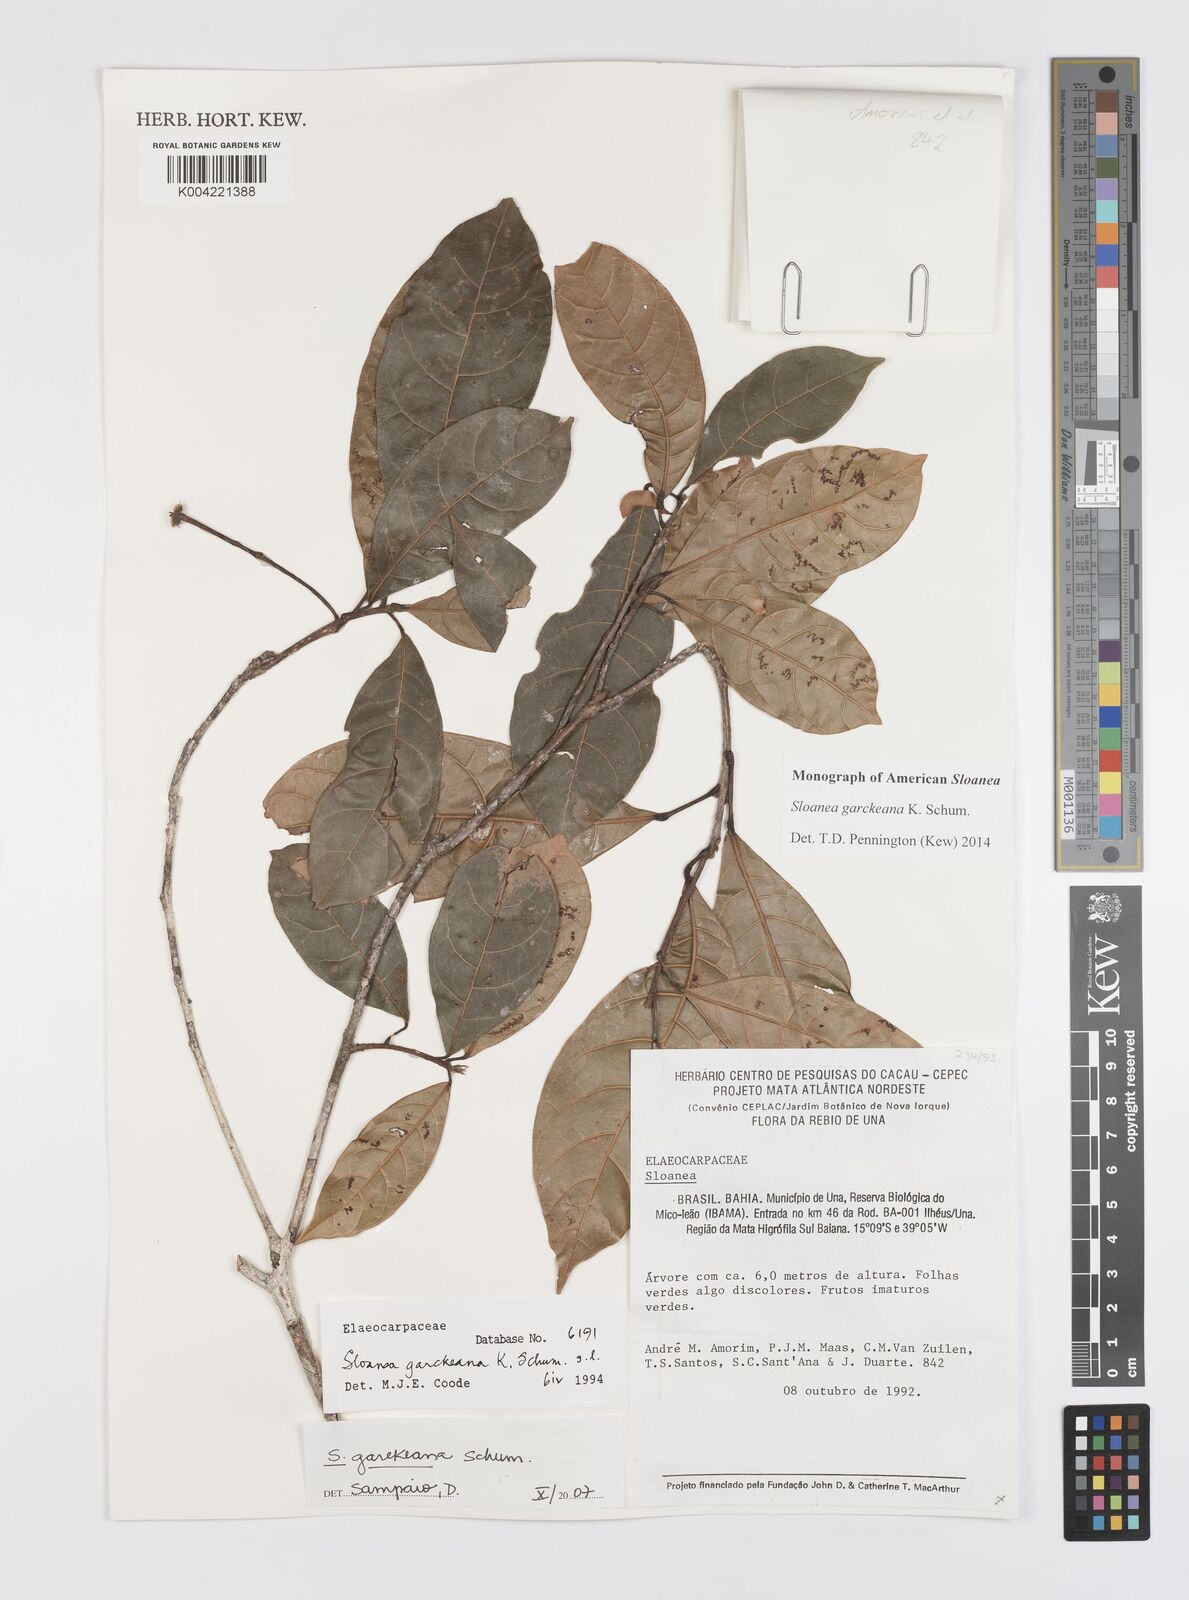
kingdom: Plantae
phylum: Tracheophyta
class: Magnoliopsida
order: Oxalidales
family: Elaeocarpaceae
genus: Sloanea
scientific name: Sloanea garckeana
